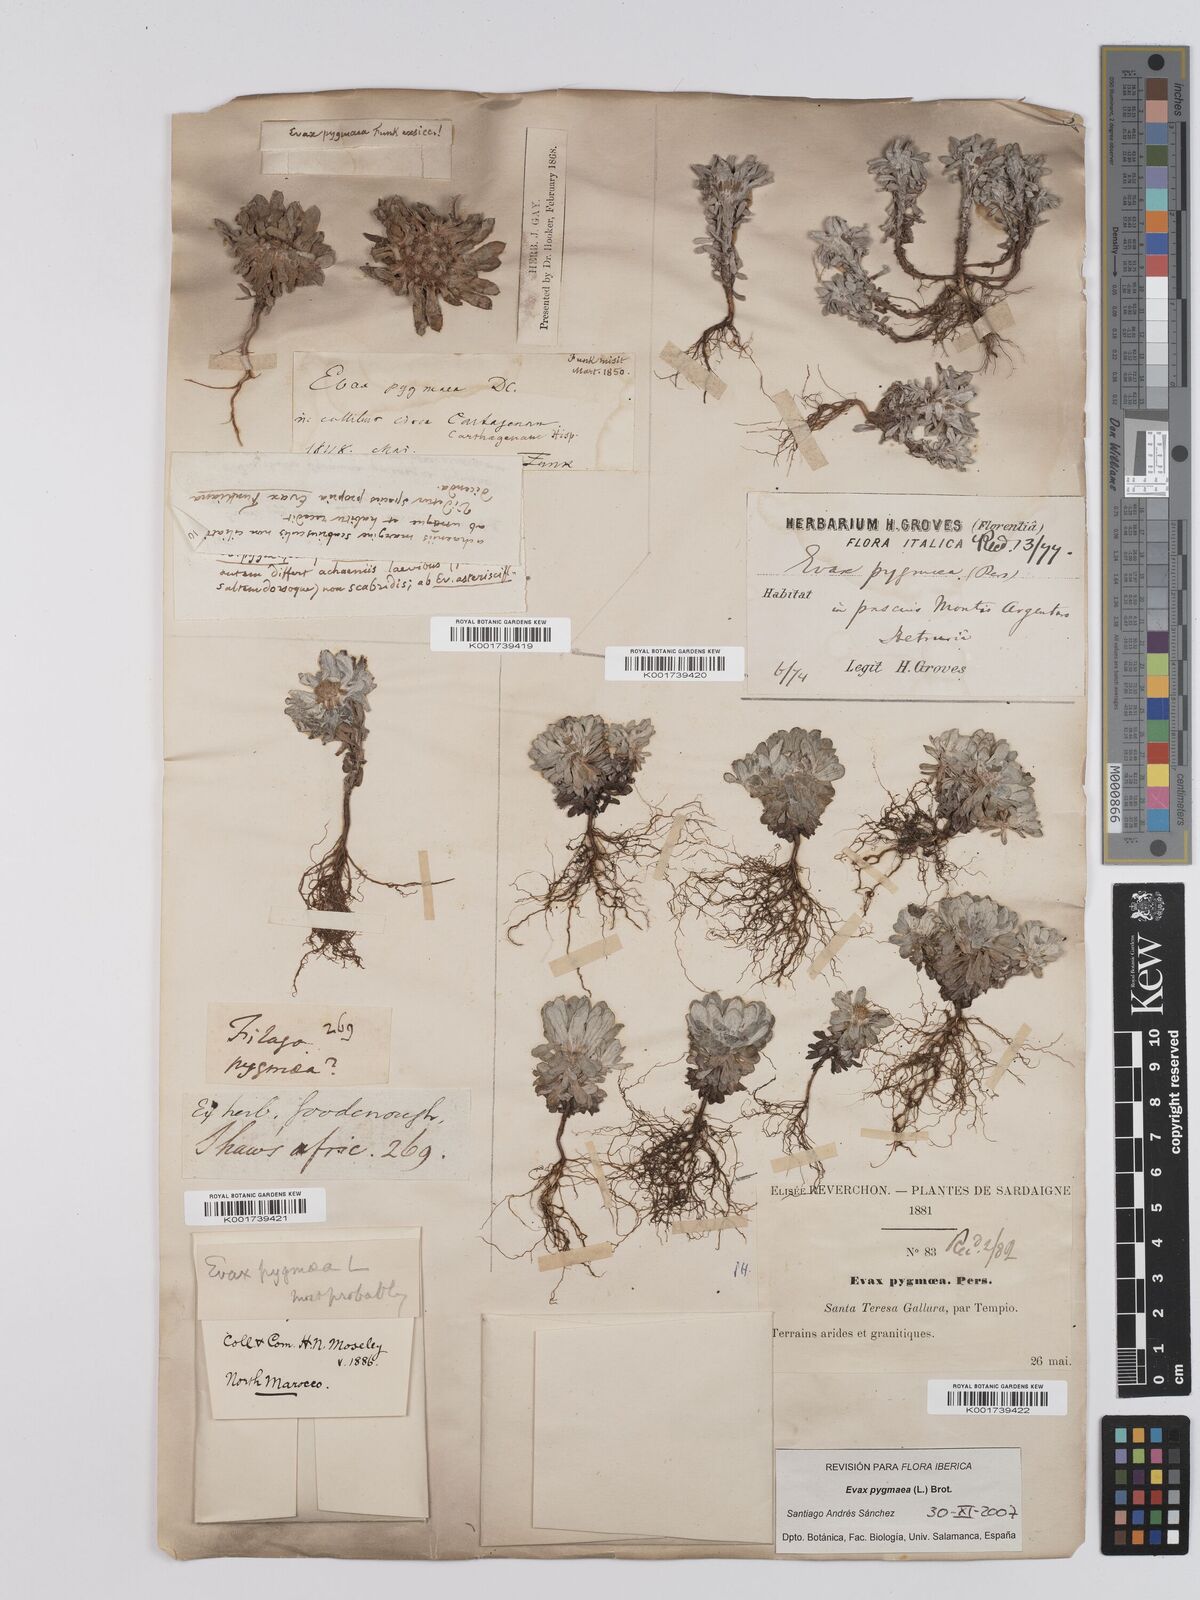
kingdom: Plantae
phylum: Tracheophyta
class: Magnoliopsida
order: Asterales
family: Asteraceae
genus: Filago
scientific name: Filago pygmaea
